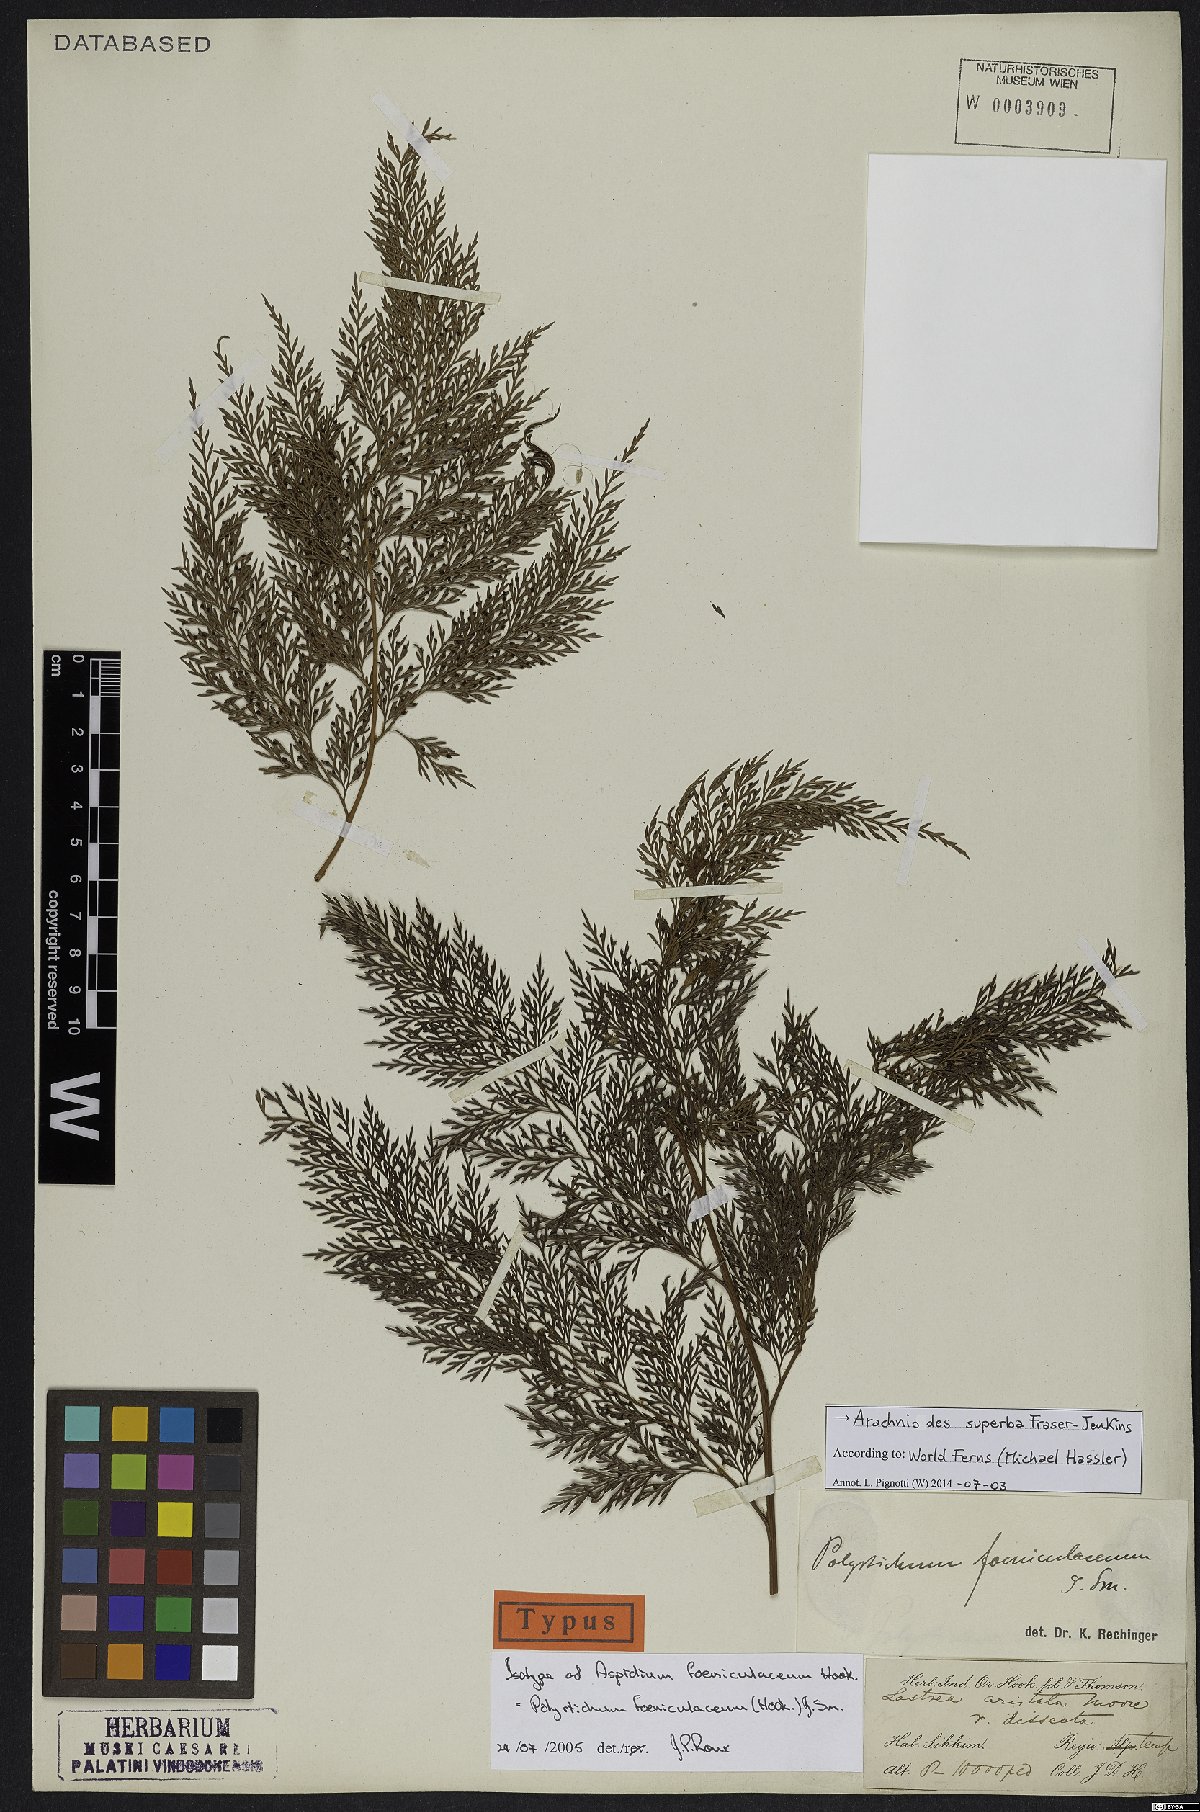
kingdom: Plantae
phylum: Tracheophyta
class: Polypodiopsida
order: Polypodiales
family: Dryopteridaceae
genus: Arachniodes
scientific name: Arachniodes superba
